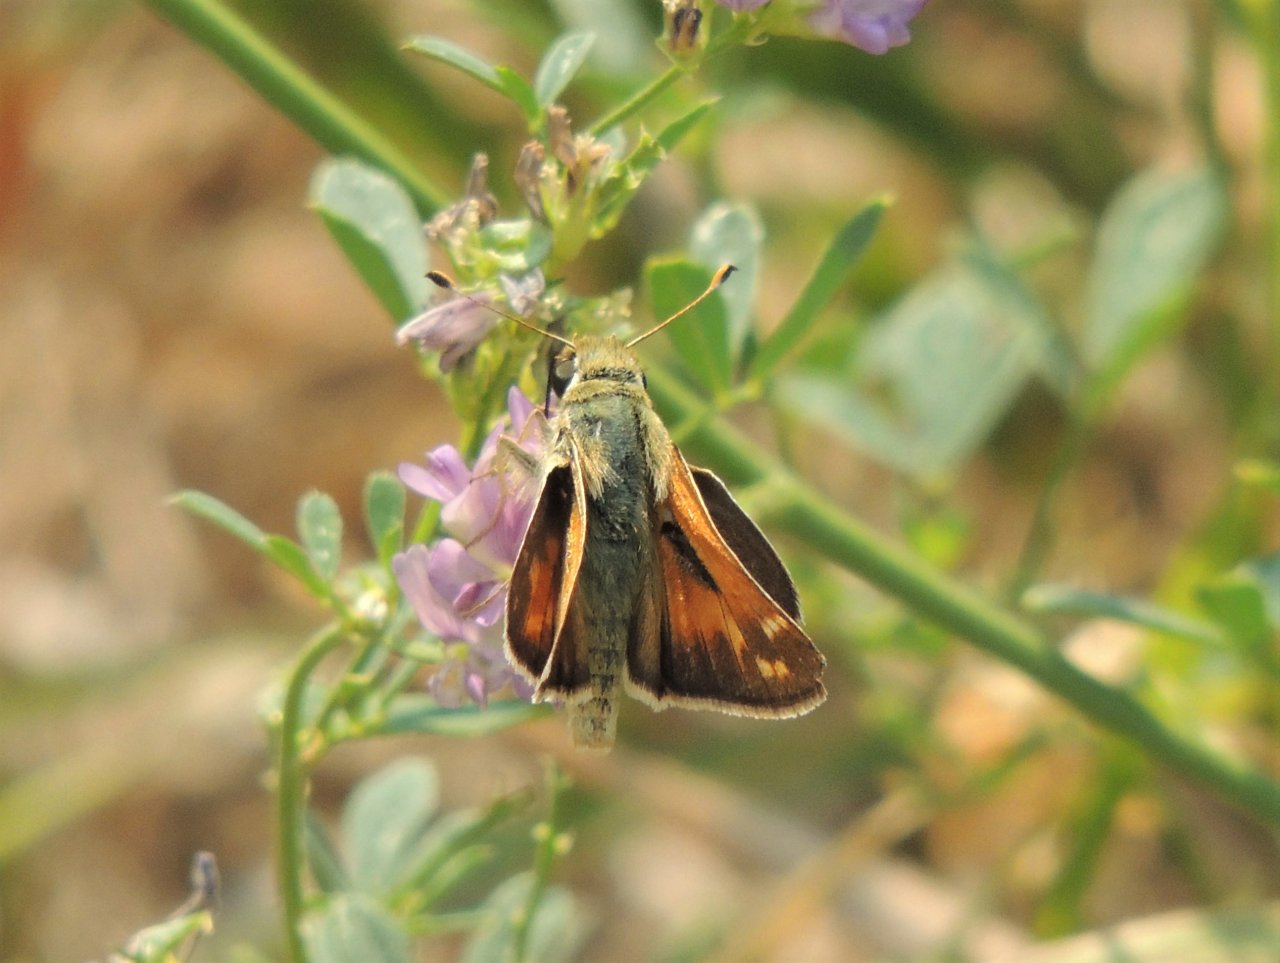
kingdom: Animalia
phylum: Arthropoda
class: Insecta
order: Lepidoptera
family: Hesperiidae
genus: Ochlodes
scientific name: Ochlodes sylvanoides
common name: Woodland Skipper
